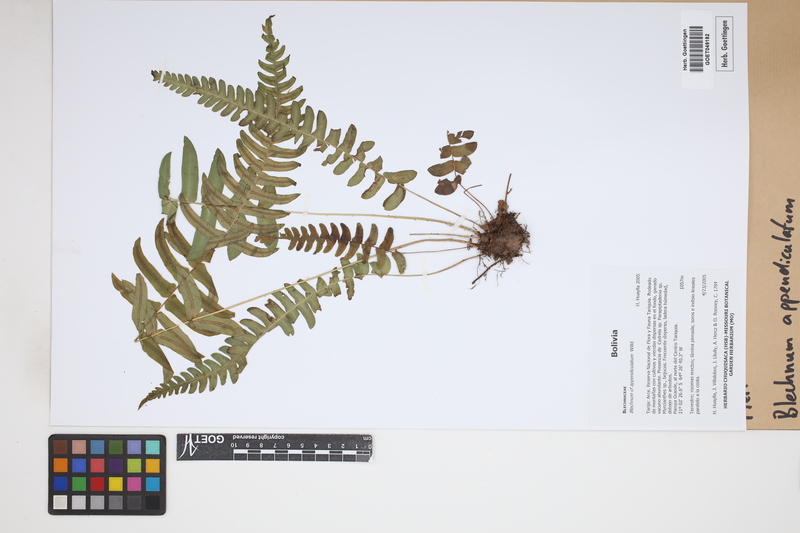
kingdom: Plantae
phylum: Tracheophyta
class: Polypodiopsida
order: Polypodiales
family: Blechnaceae
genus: Blechnum
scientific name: Blechnum appendiculatum
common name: Palm fern
